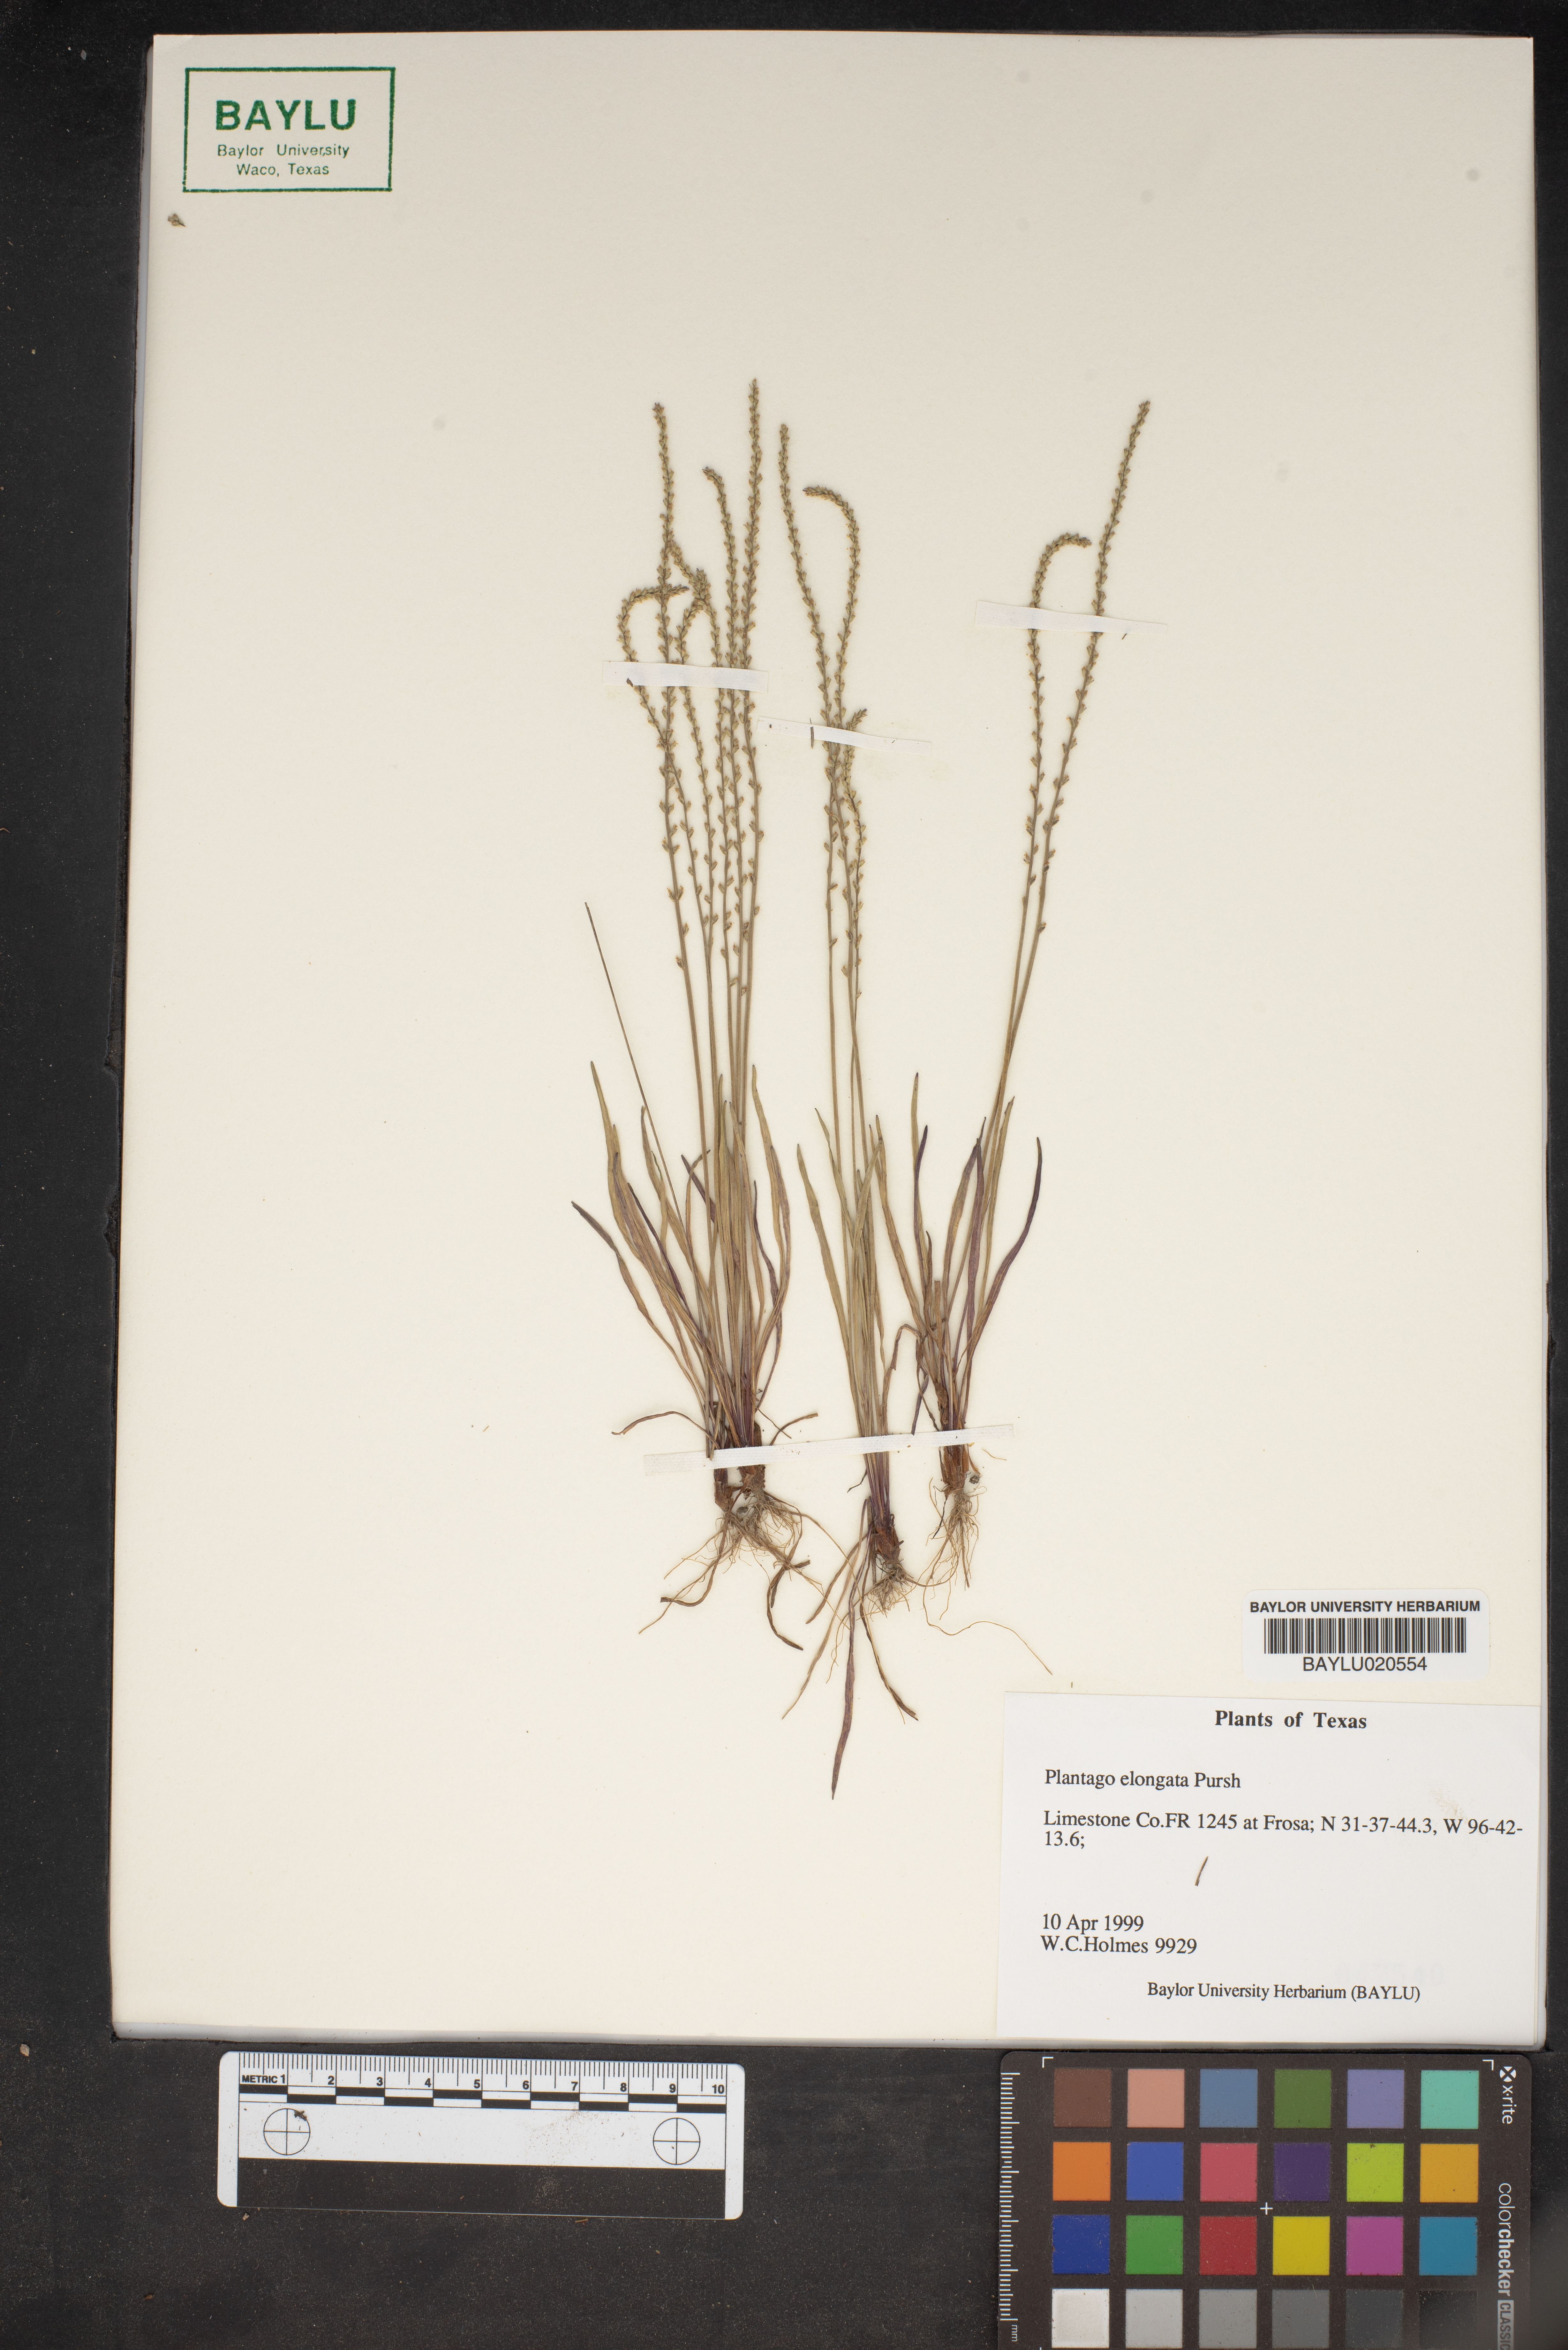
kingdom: Plantae
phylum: Tracheophyta
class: Magnoliopsida
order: Lamiales
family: Plantaginaceae
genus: Plantago
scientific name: Plantago elongata
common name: Linear-leaved plantain
